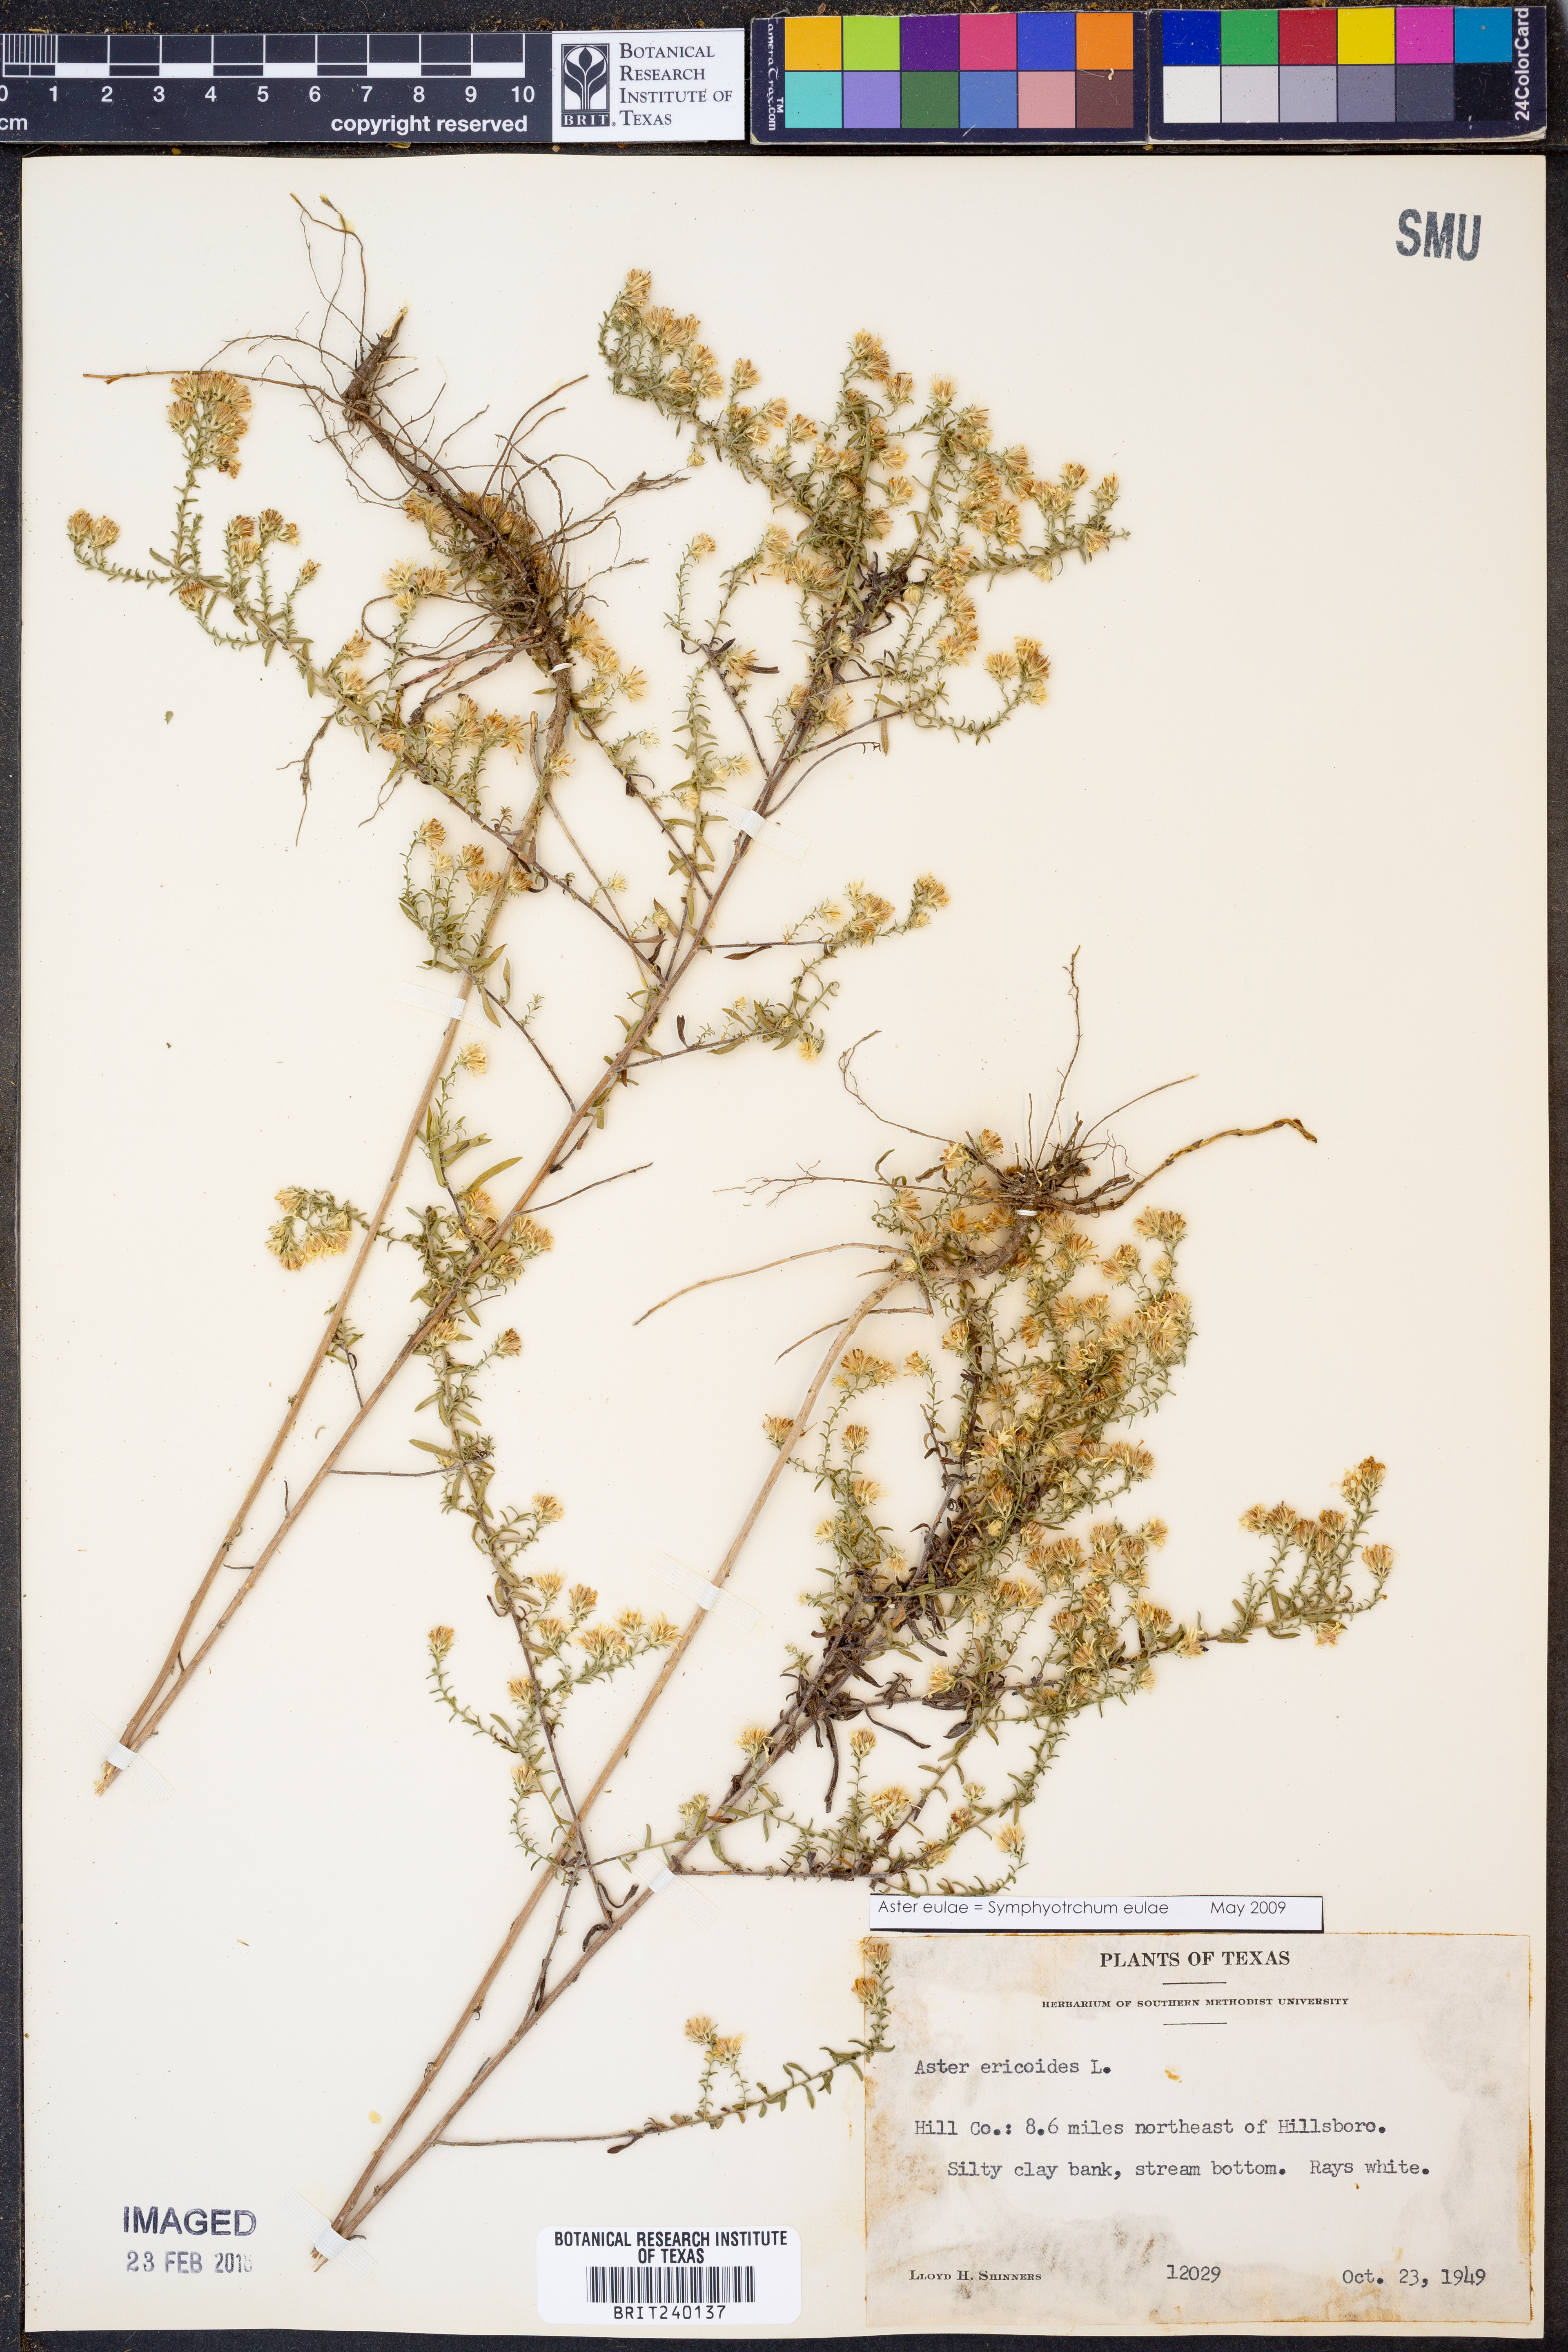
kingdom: Plantae
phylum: Tracheophyta
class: Magnoliopsida
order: Asterales
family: Asteraceae
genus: Symphyotrichum
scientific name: Symphyotrichum eulae
